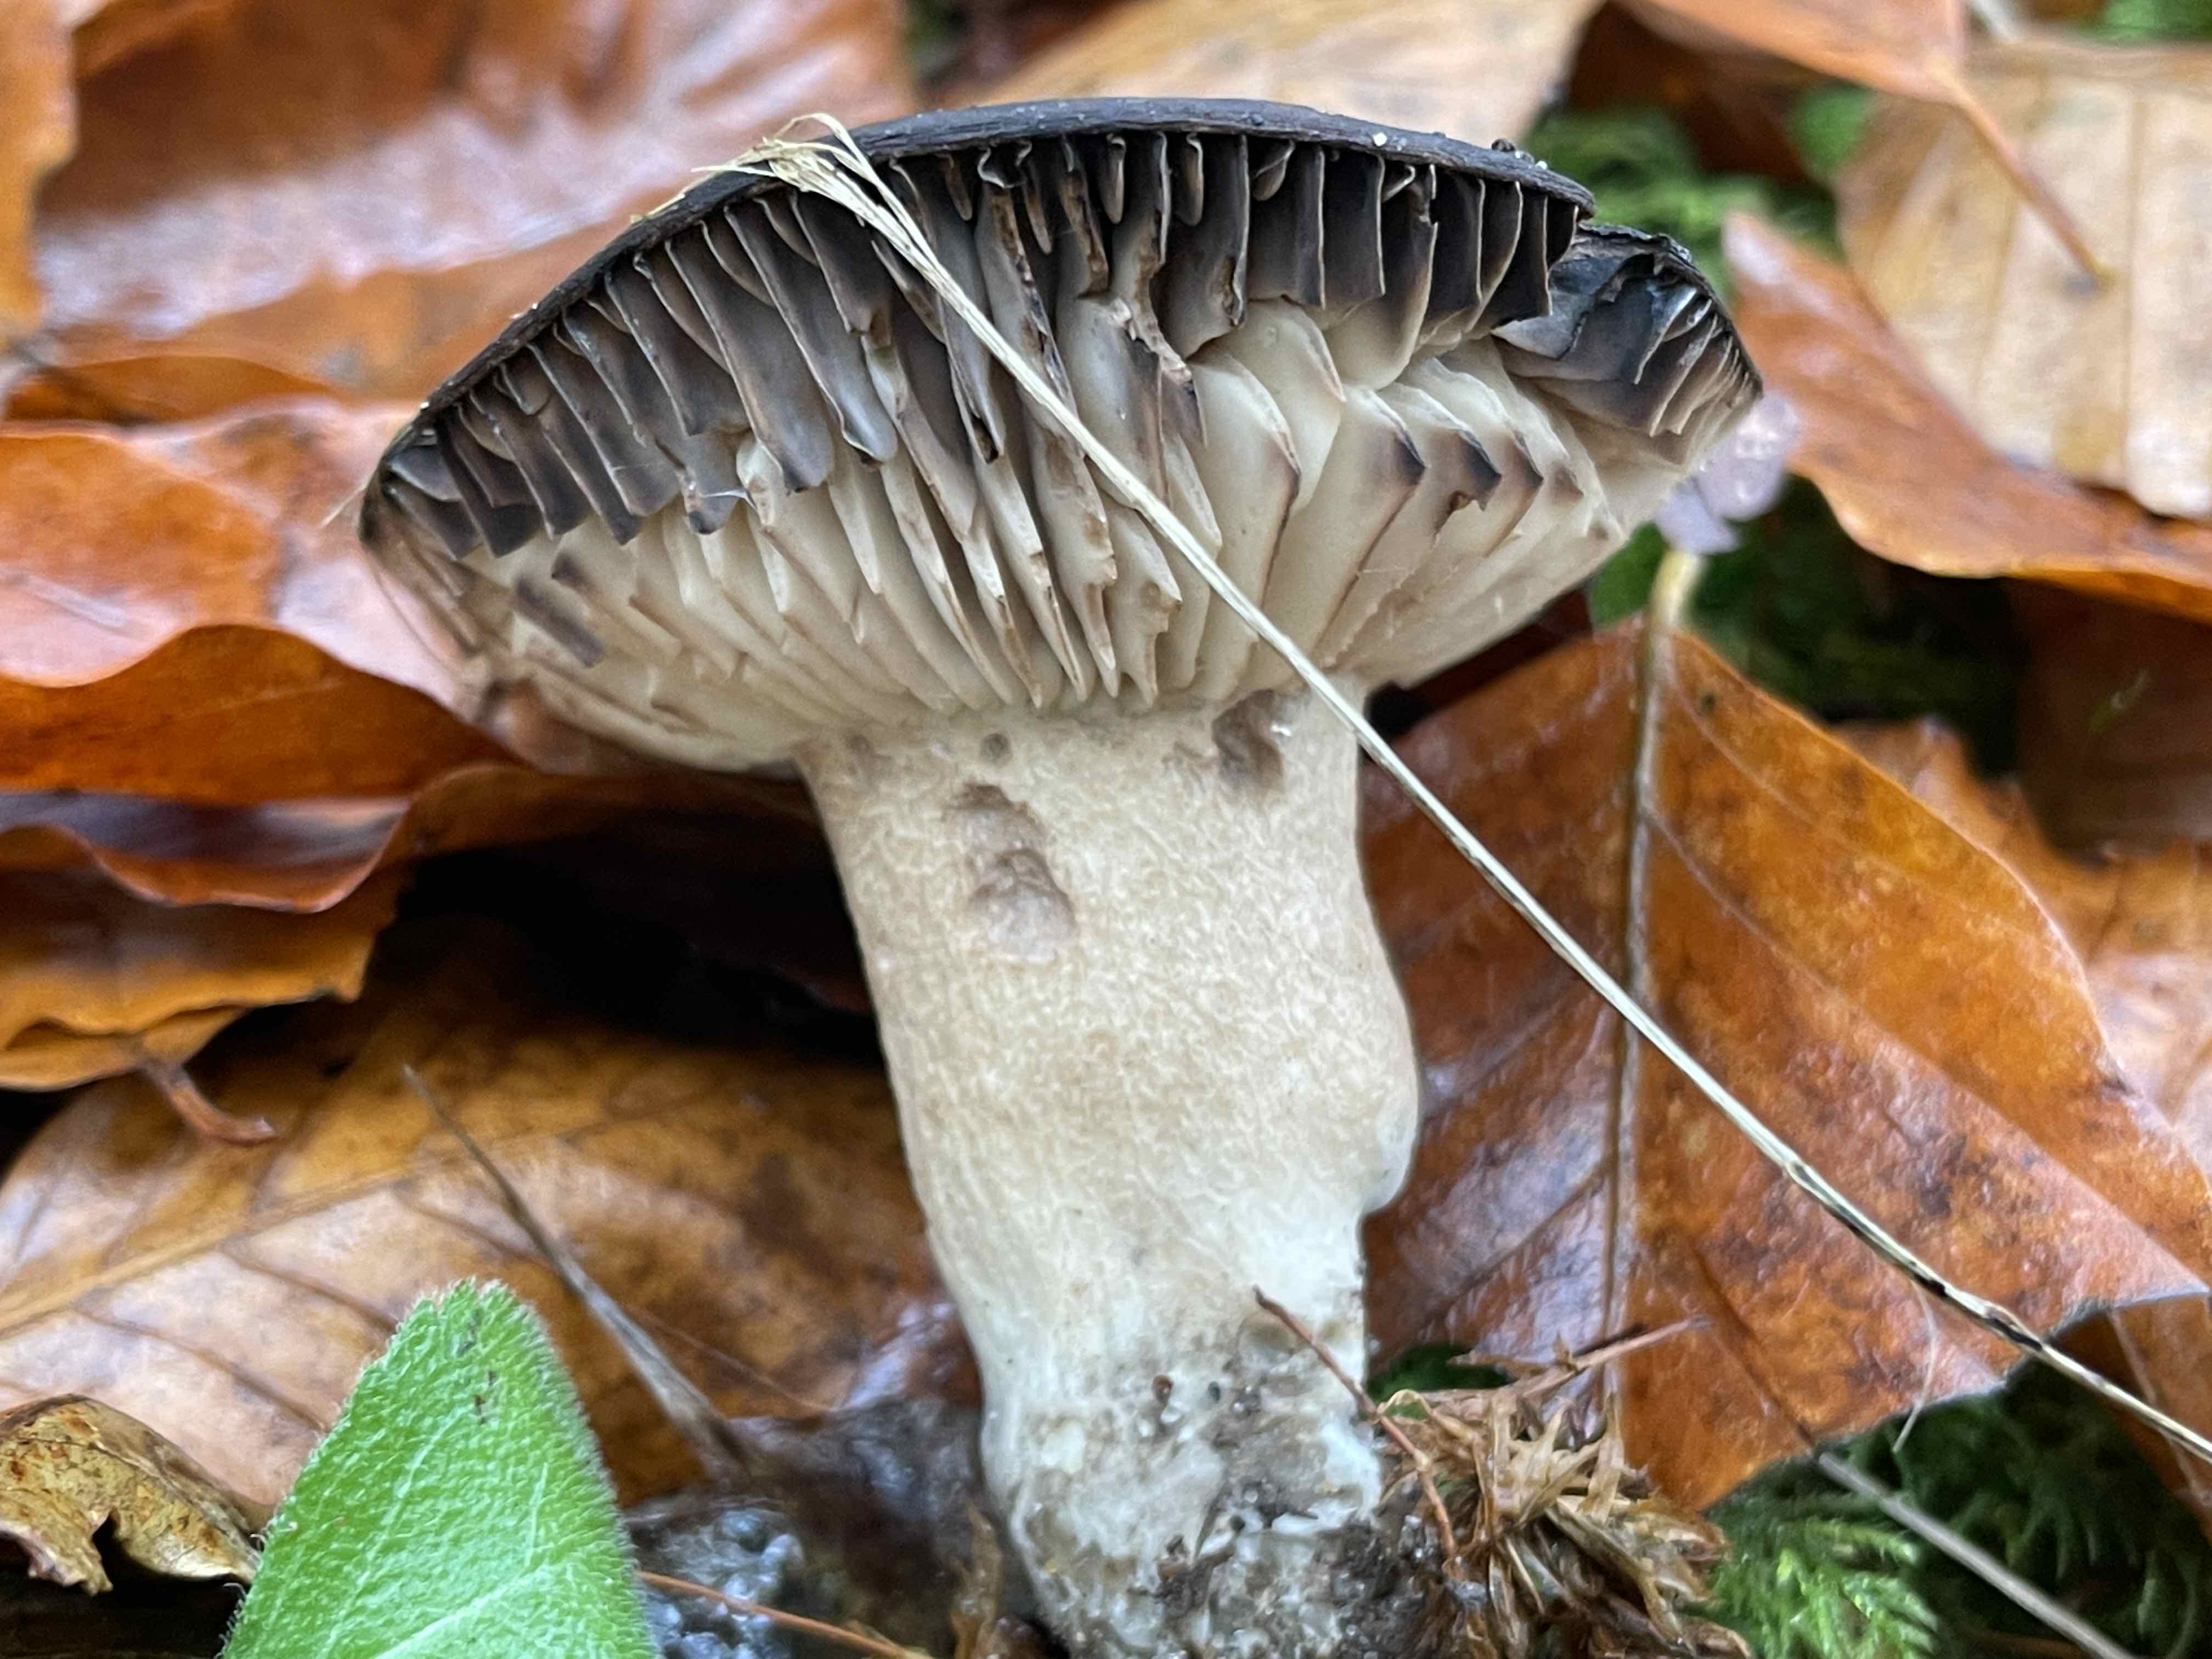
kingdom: Fungi
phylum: Basidiomycota
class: Agaricomycetes
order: Russulales
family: Russulaceae
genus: Russula
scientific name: Russula adusta
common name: sværtende skørhat
